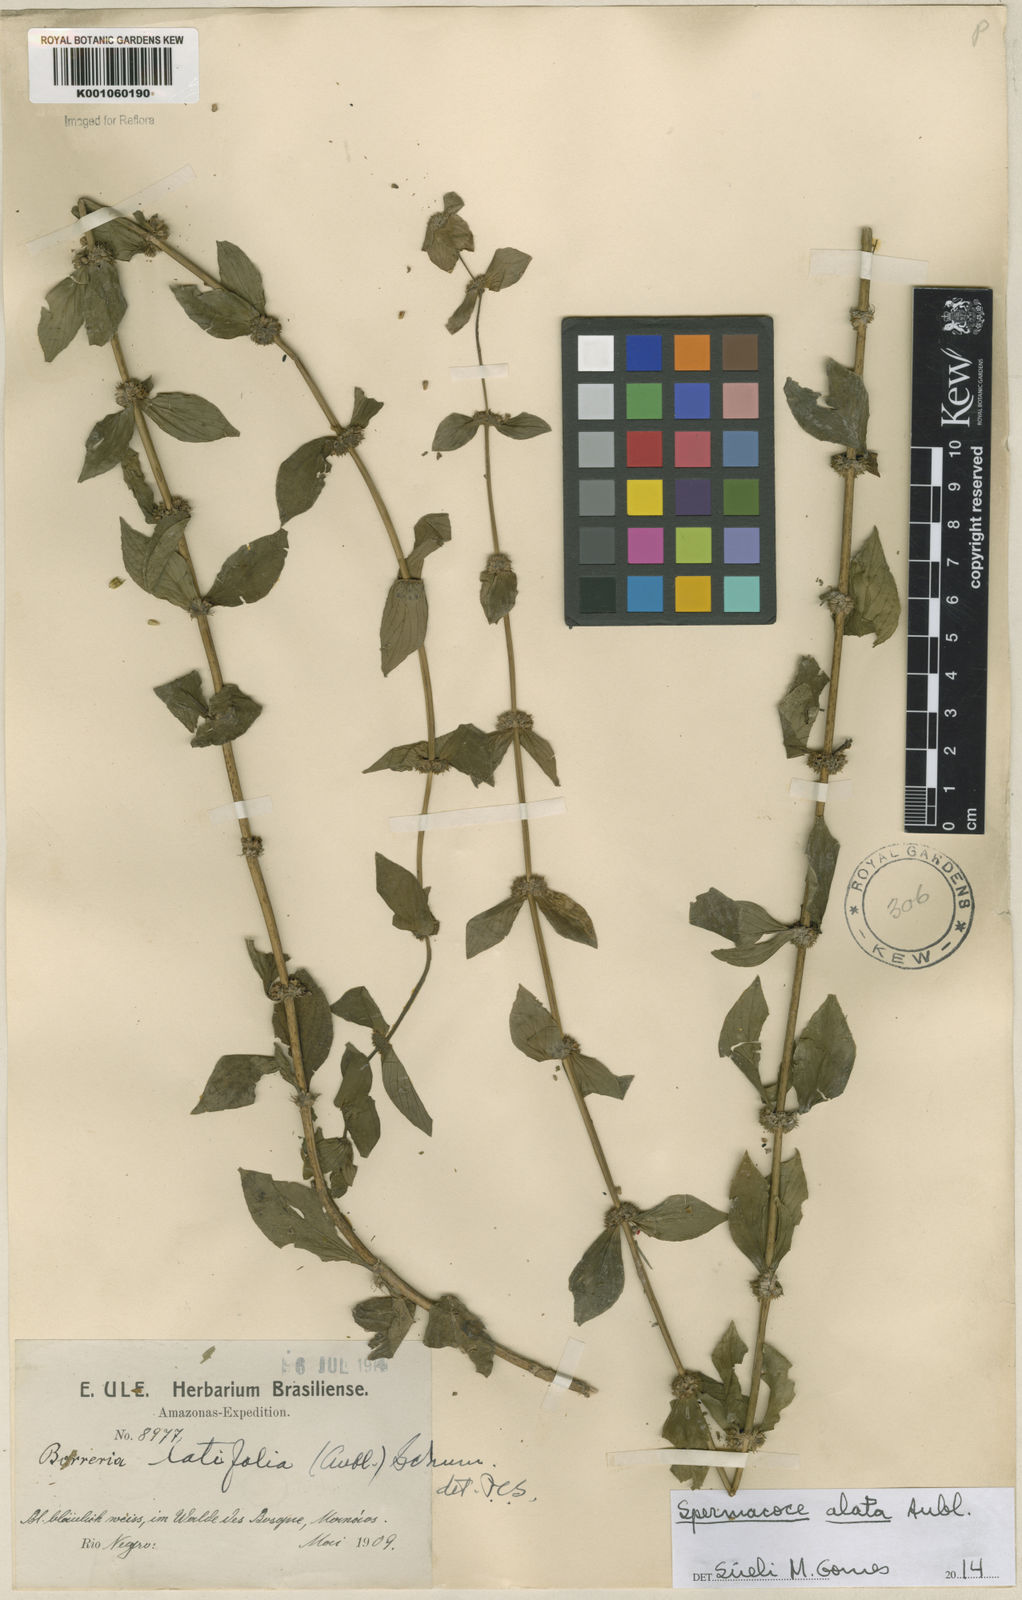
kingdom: Plantae
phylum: Tracheophyta
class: Magnoliopsida
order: Gentianales
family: Rubiaceae
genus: Spermacoce
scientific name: Spermacoce
